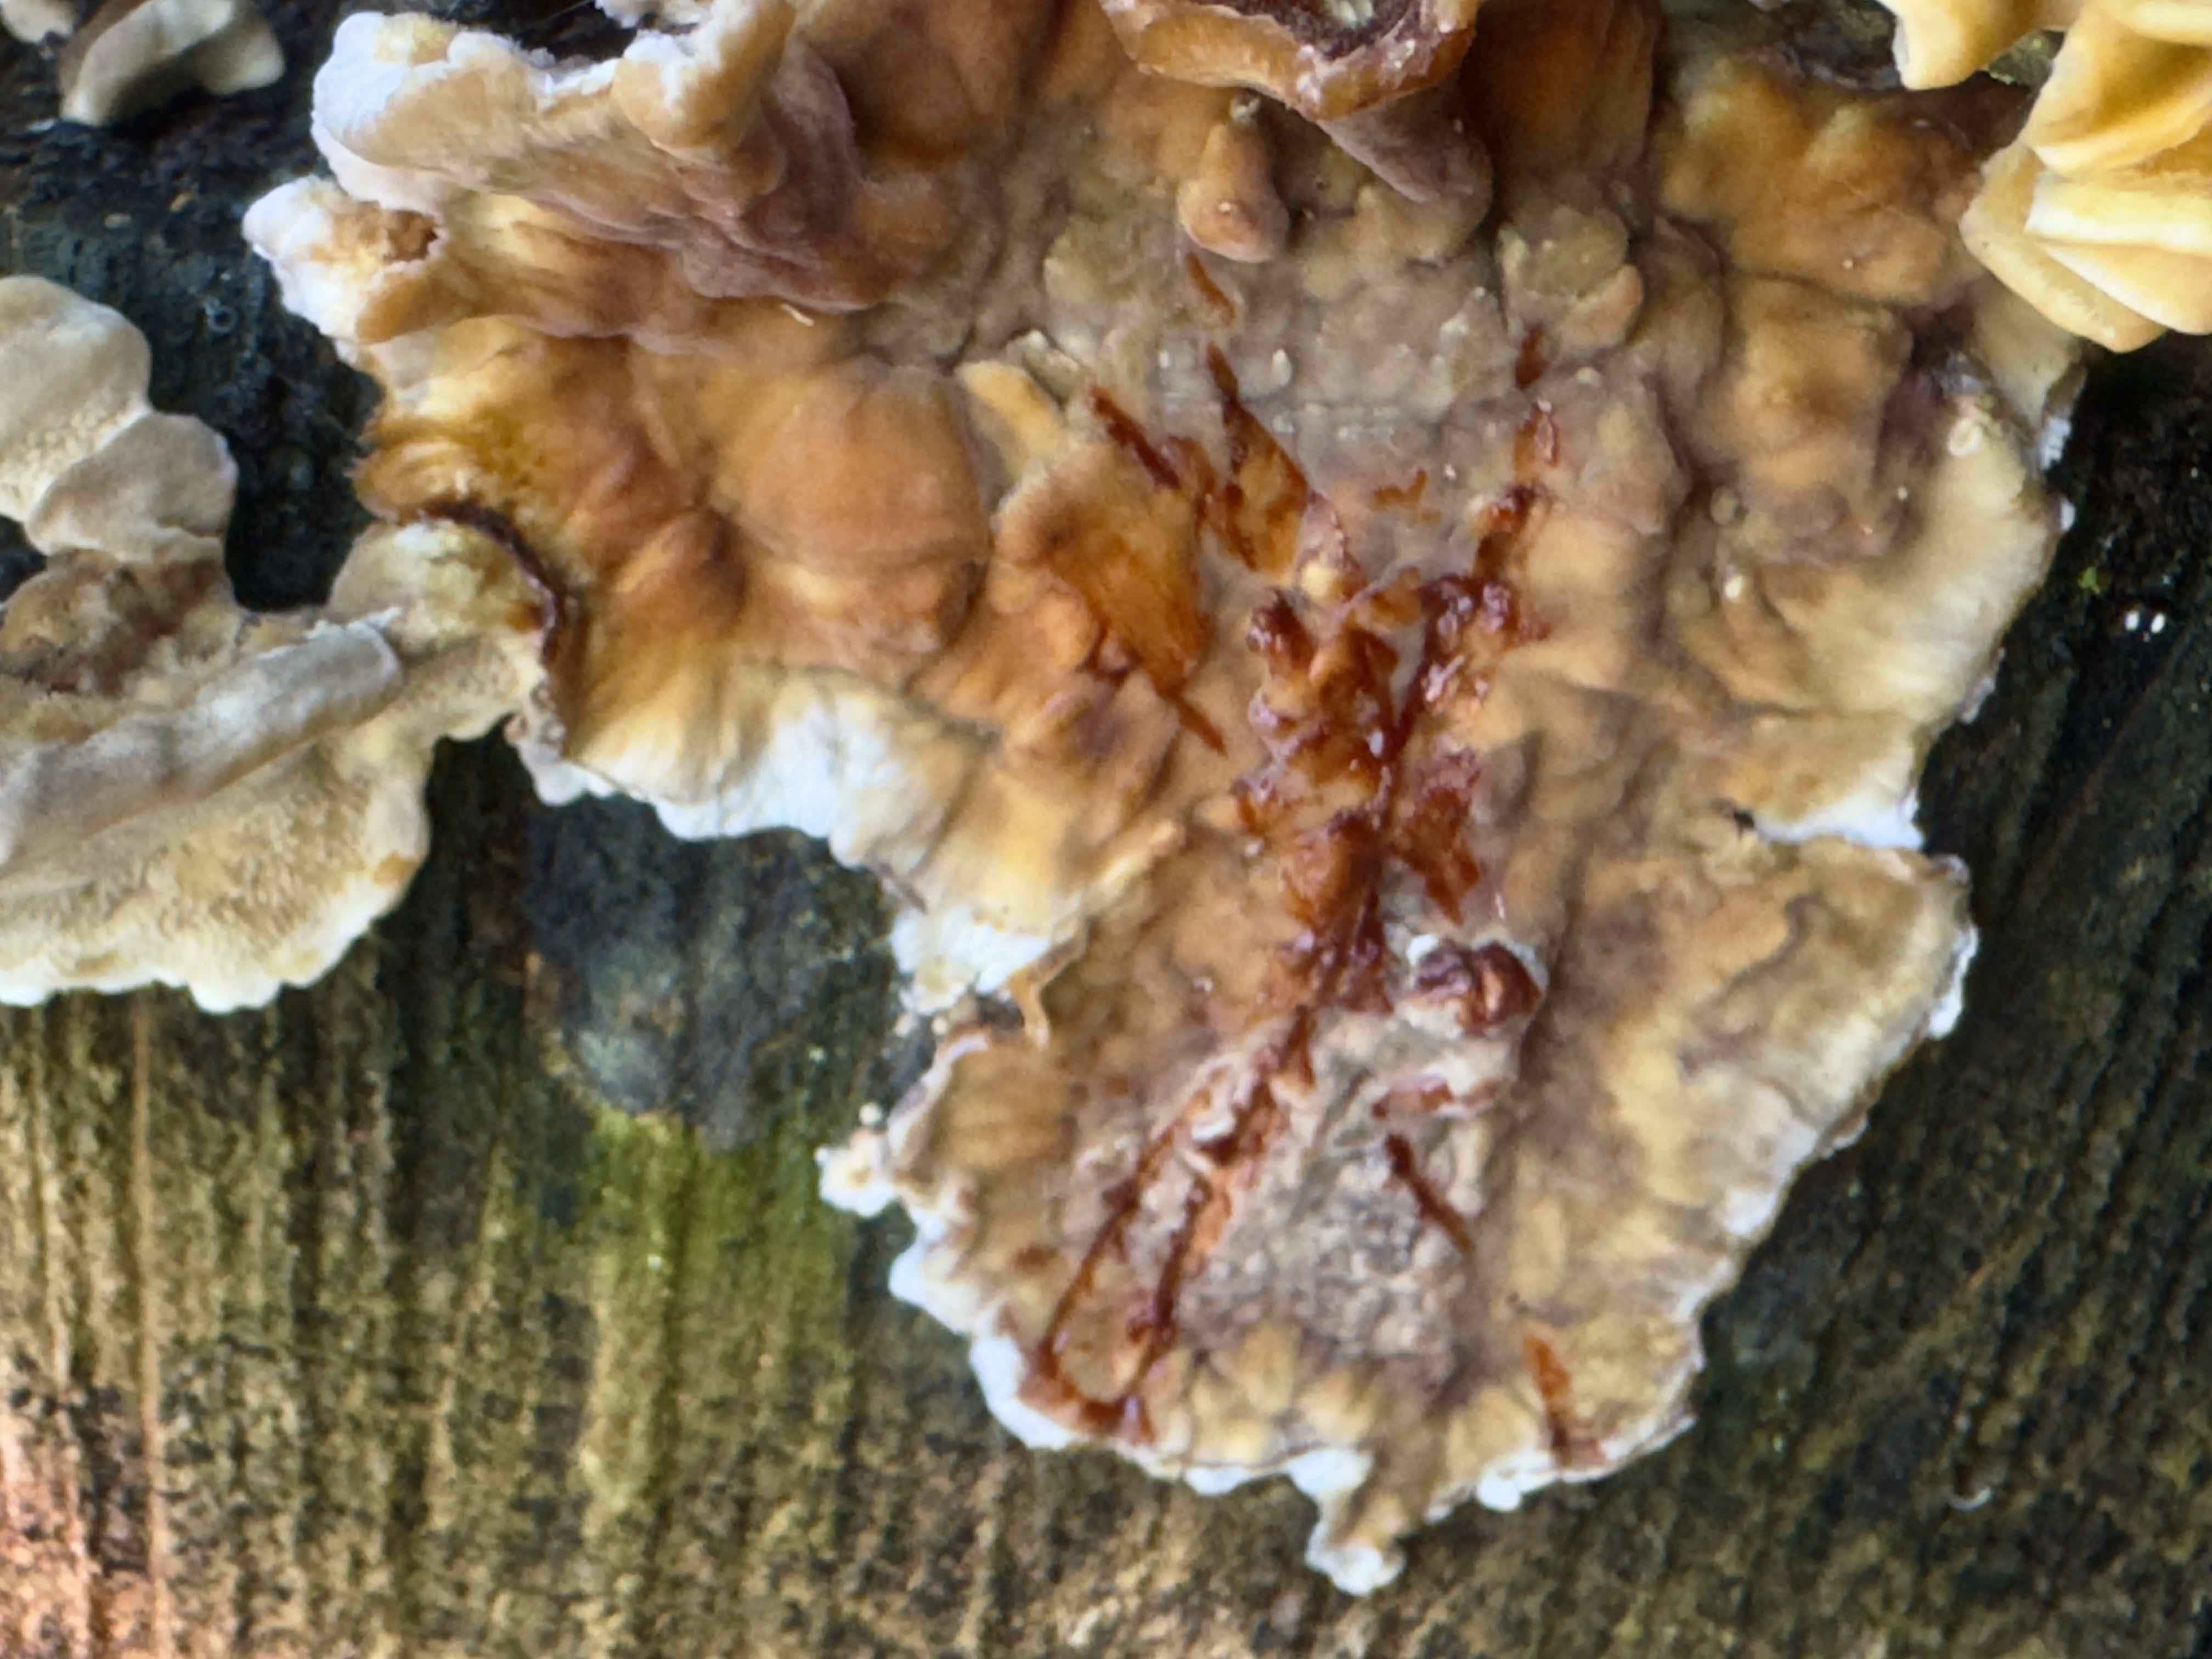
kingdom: Fungi
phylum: Basidiomycota
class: Agaricomycetes
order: Russulales
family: Stereaceae
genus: Stereum
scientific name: Stereum rugosum
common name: rynket lædersvamp
